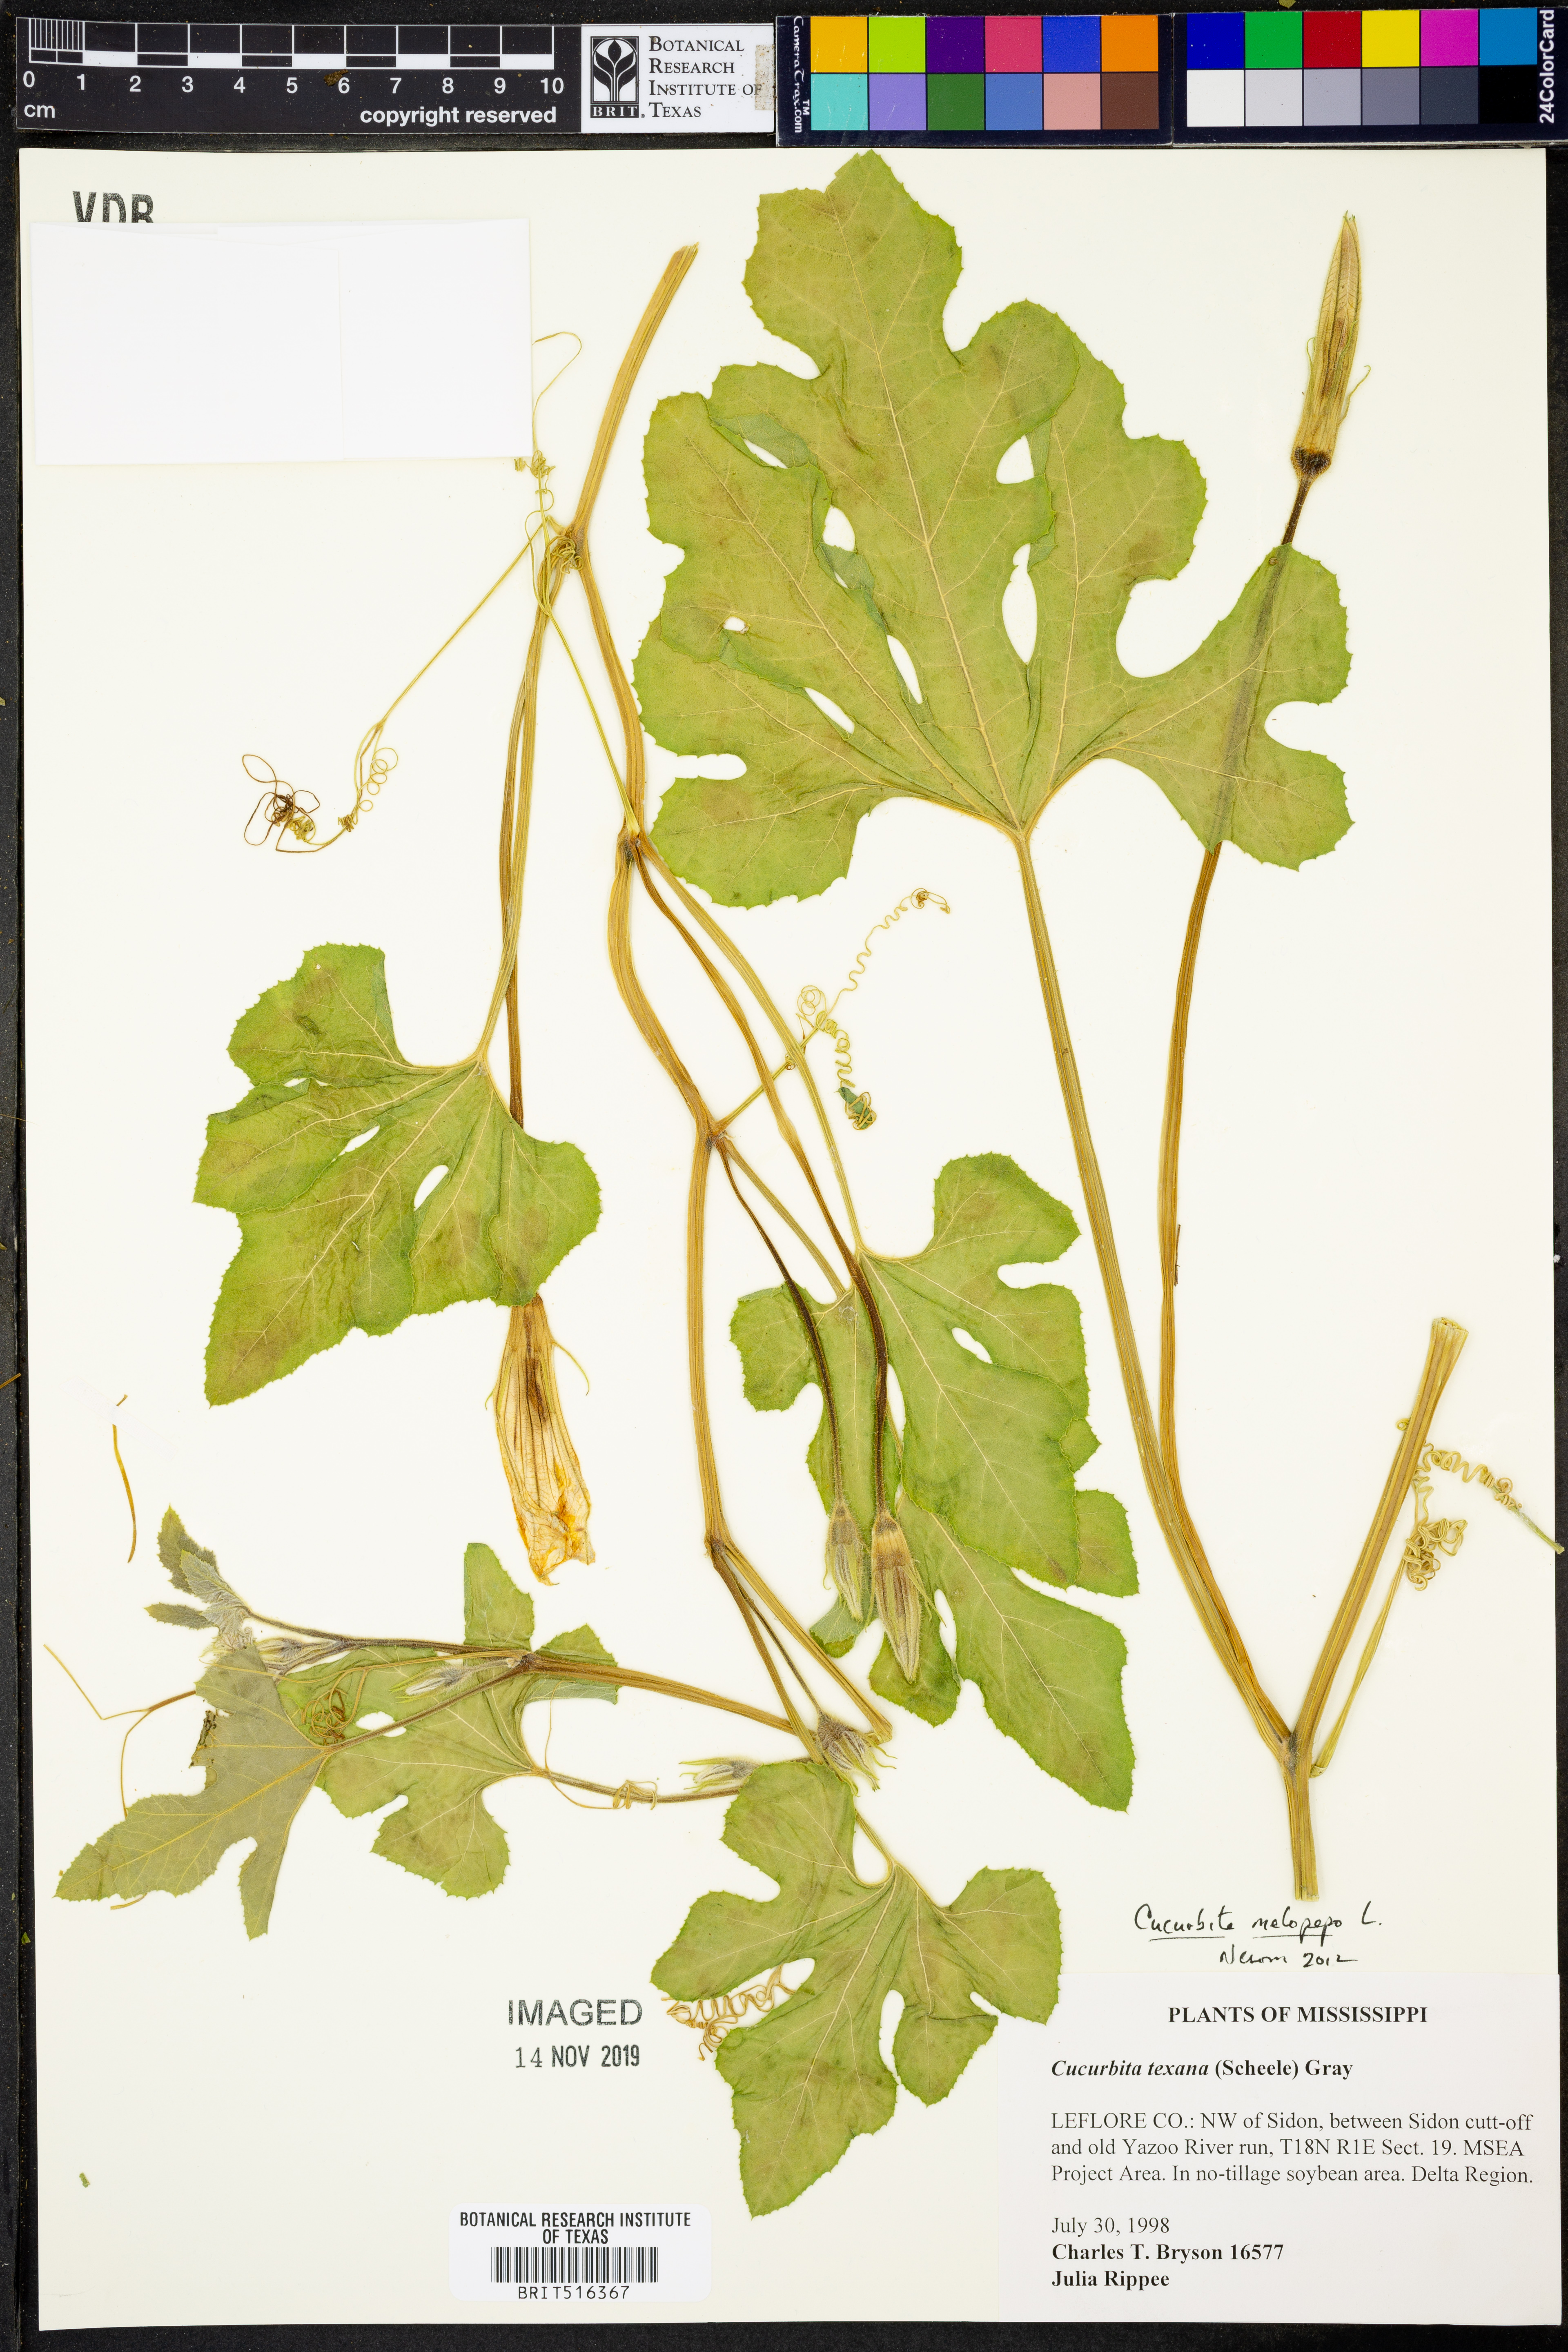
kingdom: Plantae
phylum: Tracheophyta
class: Magnoliopsida
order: Cucurbitales
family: Cucurbitaceae
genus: Cucurbita
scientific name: Cucurbita melopepo
